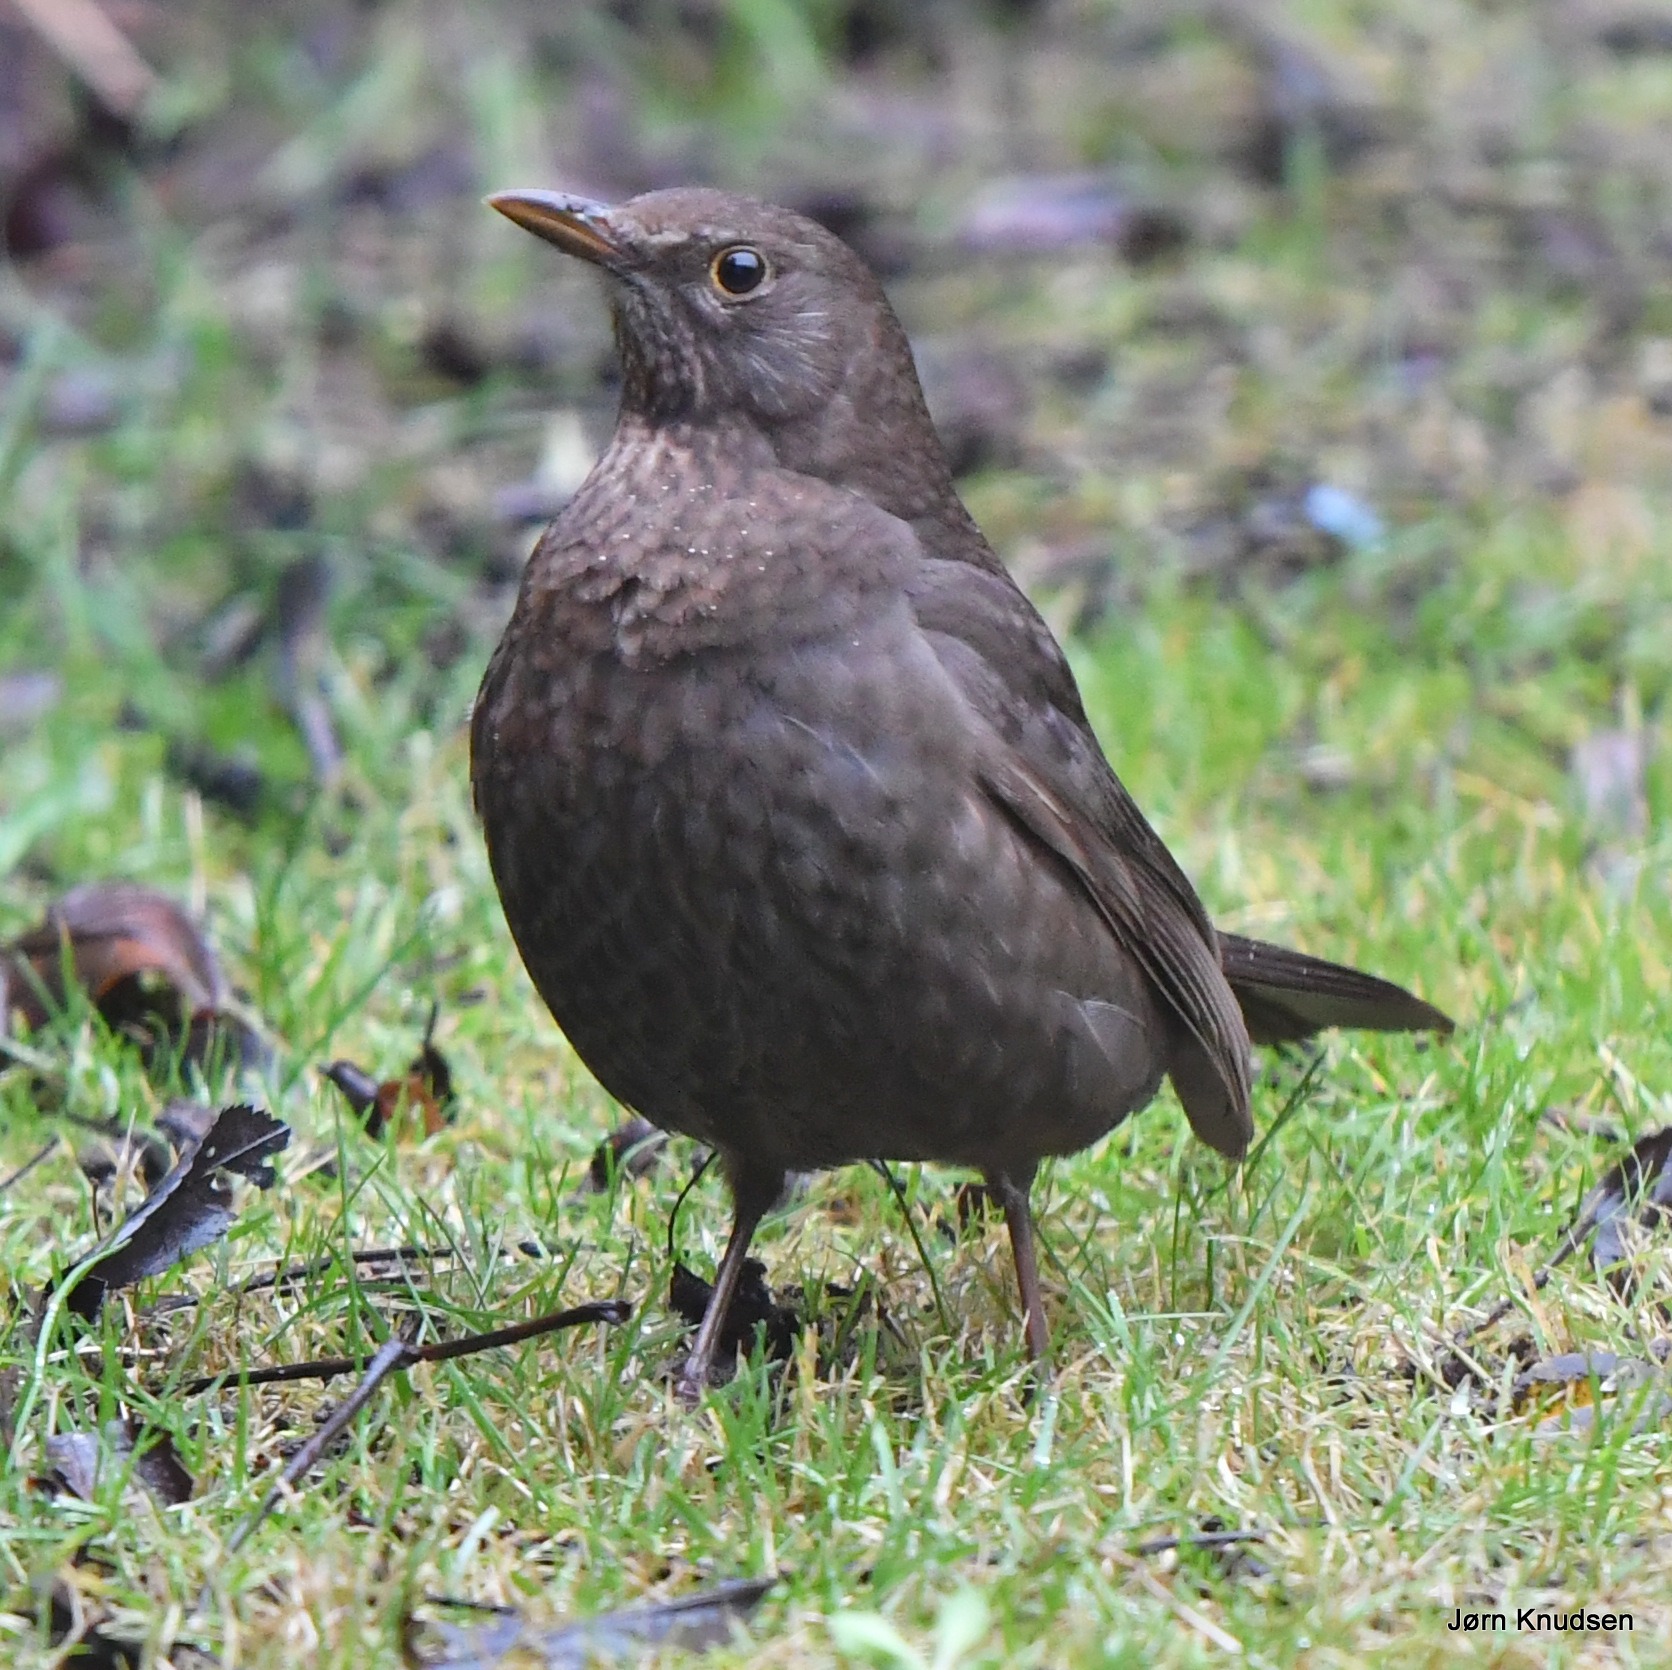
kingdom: Animalia
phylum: Chordata
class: Aves
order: Passeriformes
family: Turdidae
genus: Turdus
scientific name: Turdus merula
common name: Solsort
